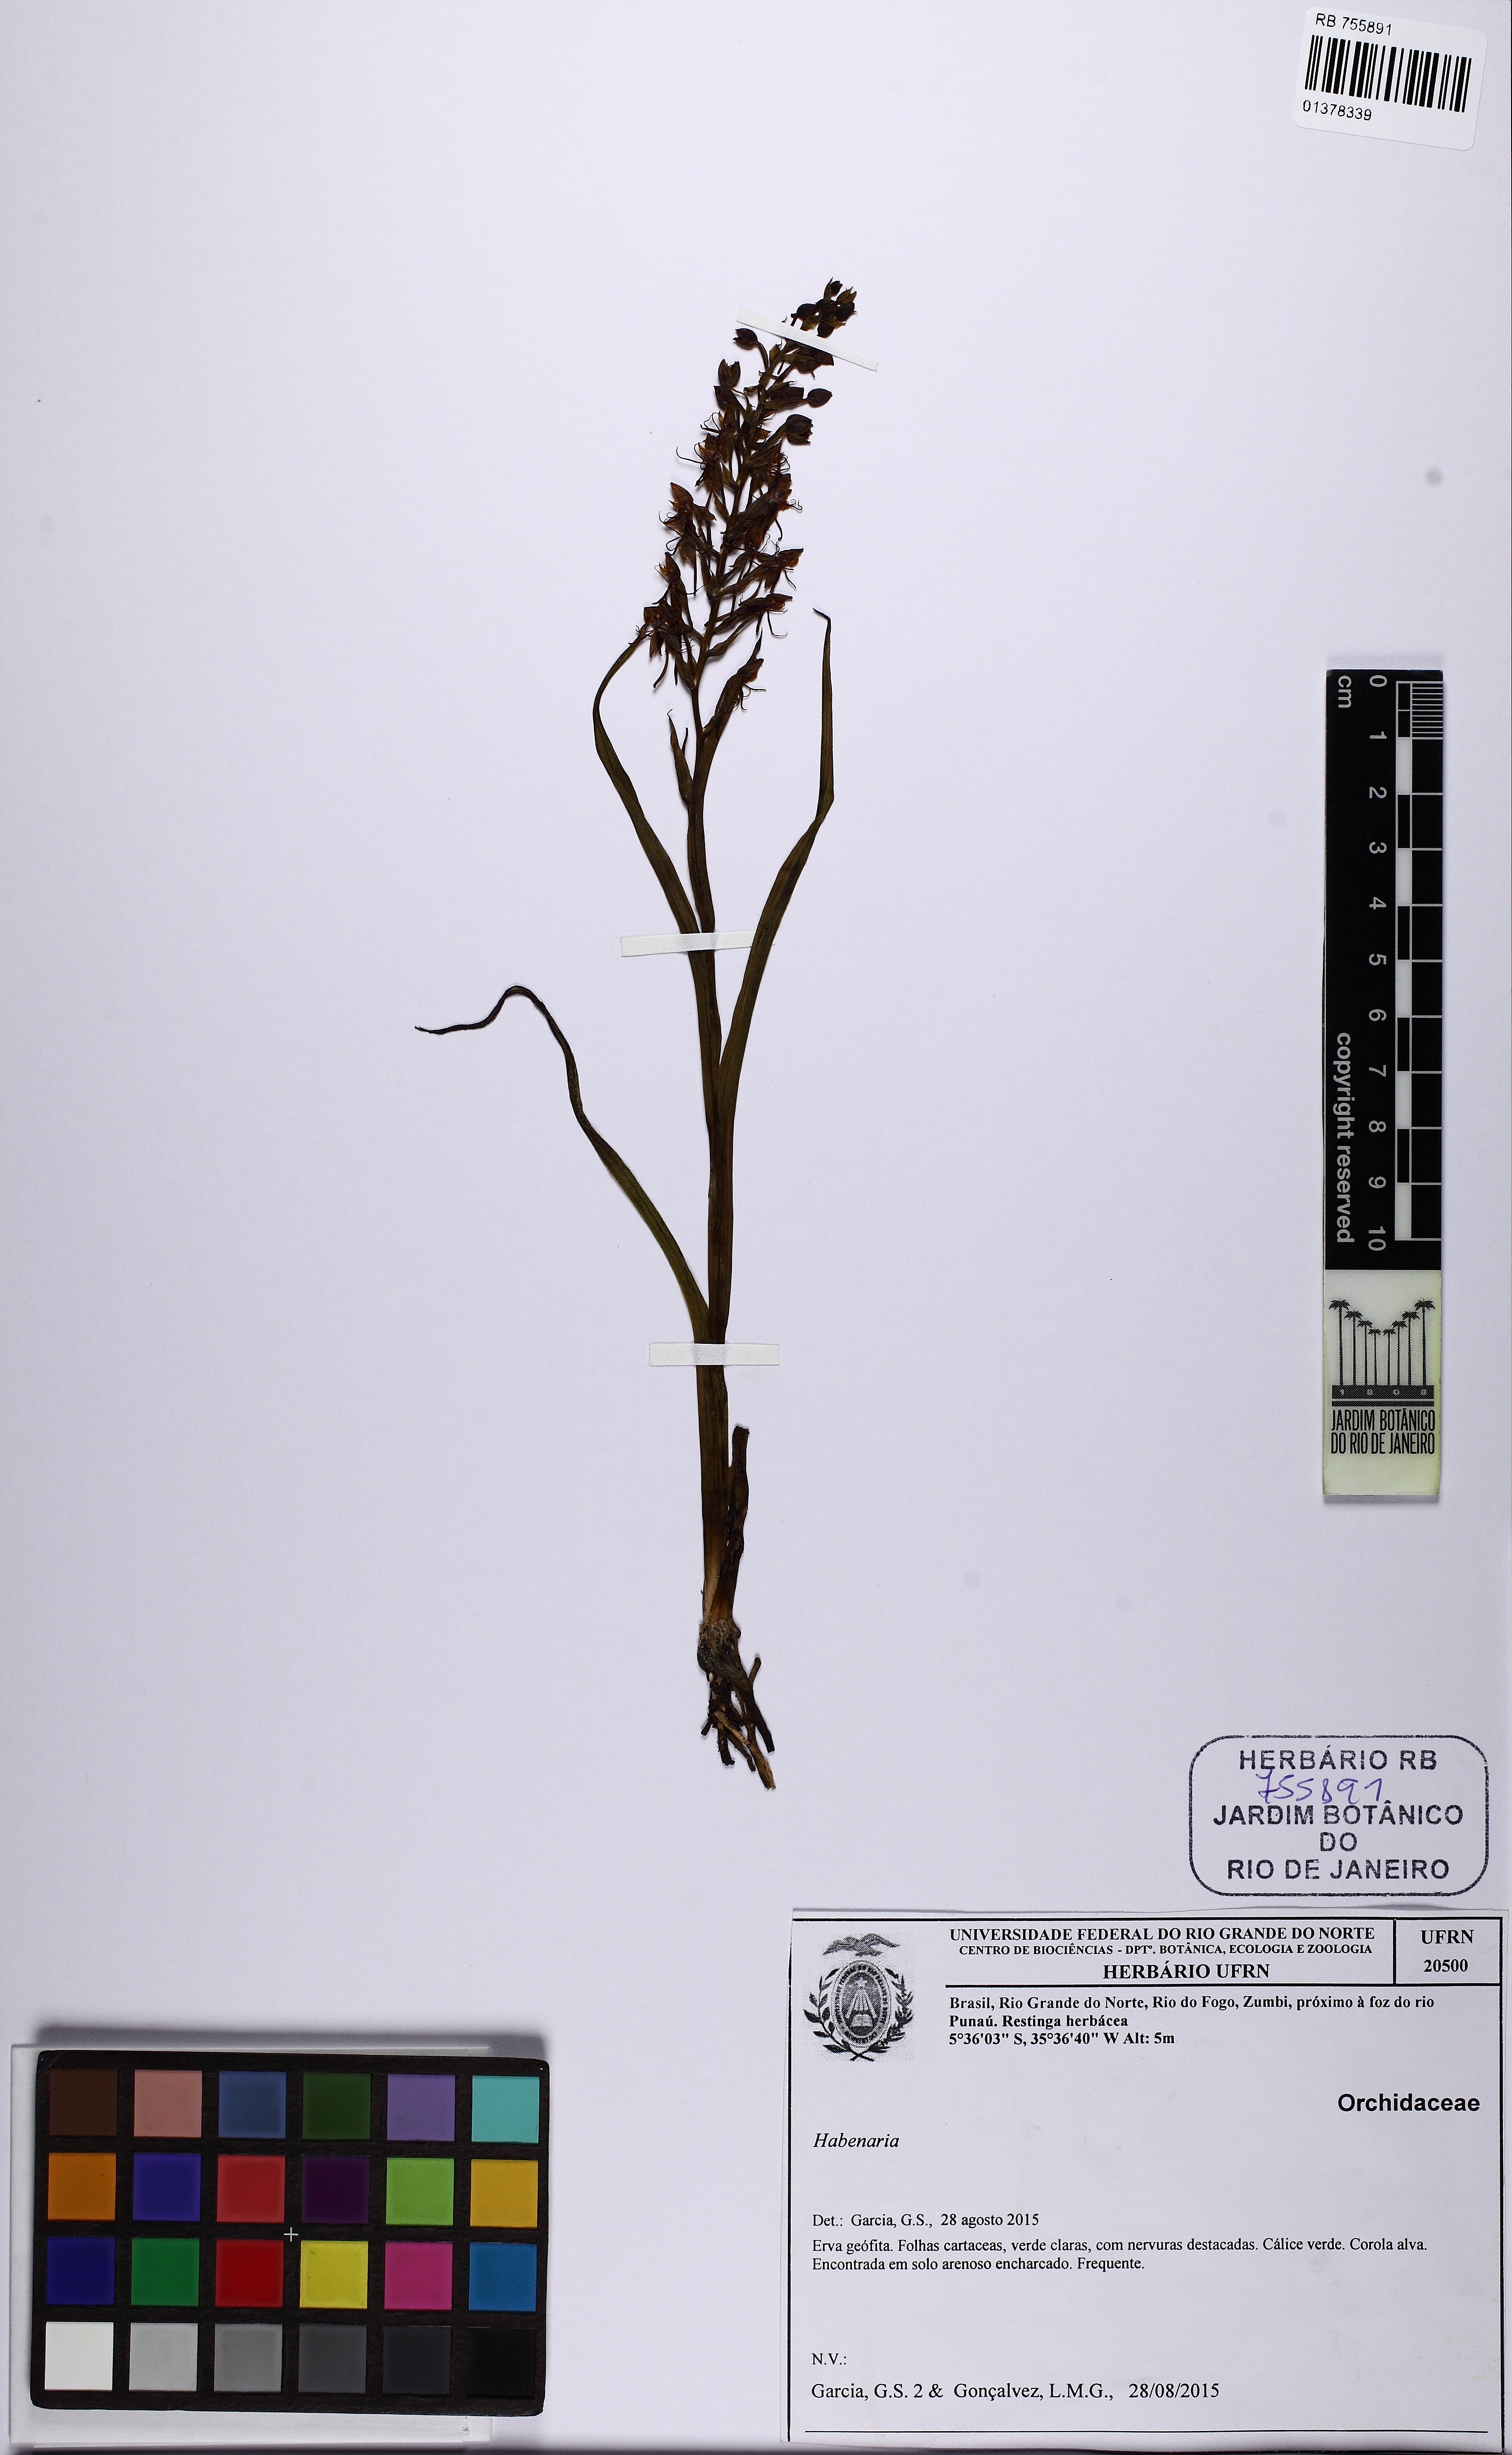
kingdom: Plantae
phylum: Tracheophyta
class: Liliopsida
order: Asparagales
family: Orchidaceae
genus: Habenaria
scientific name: Habenaria amambayensis
